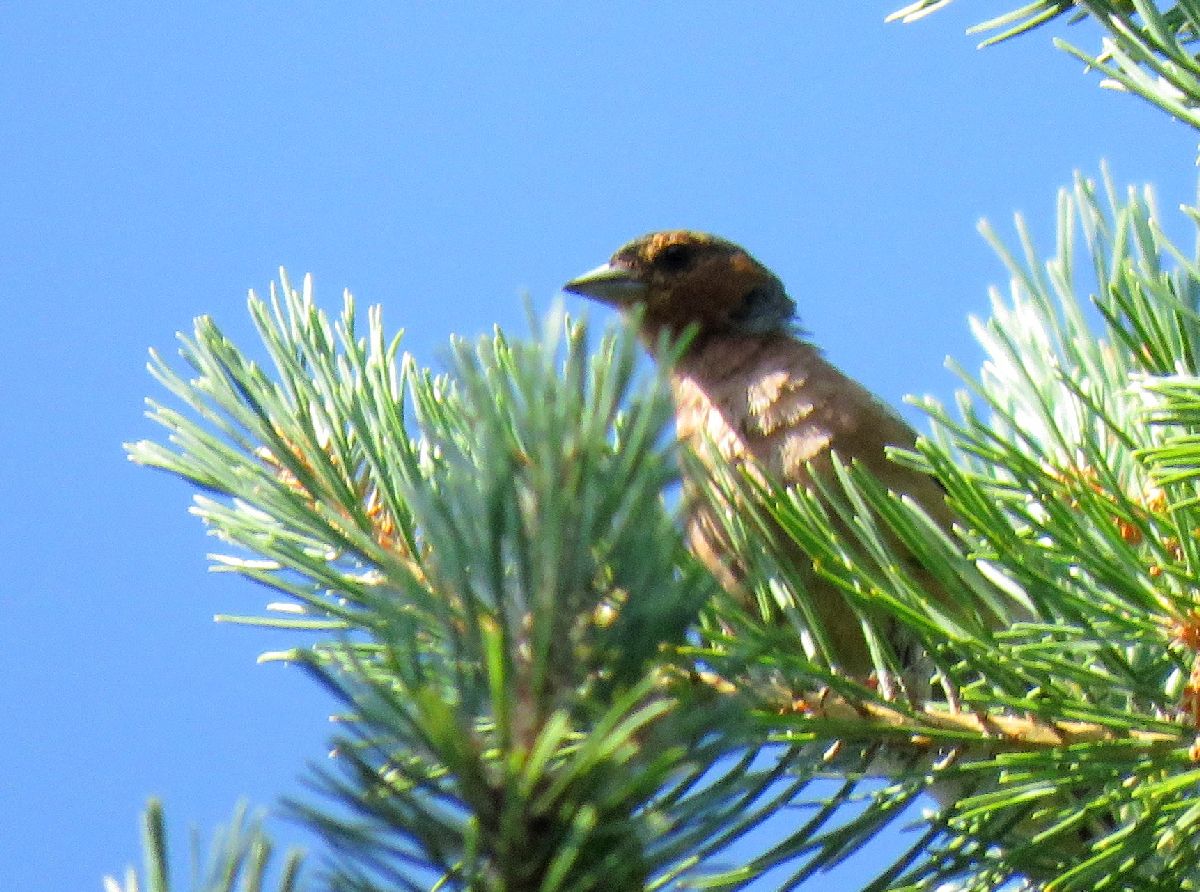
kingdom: Animalia
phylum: Chordata
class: Aves
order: Passeriformes
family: Fringillidae
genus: Fringilla
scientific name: Fringilla coelebs
